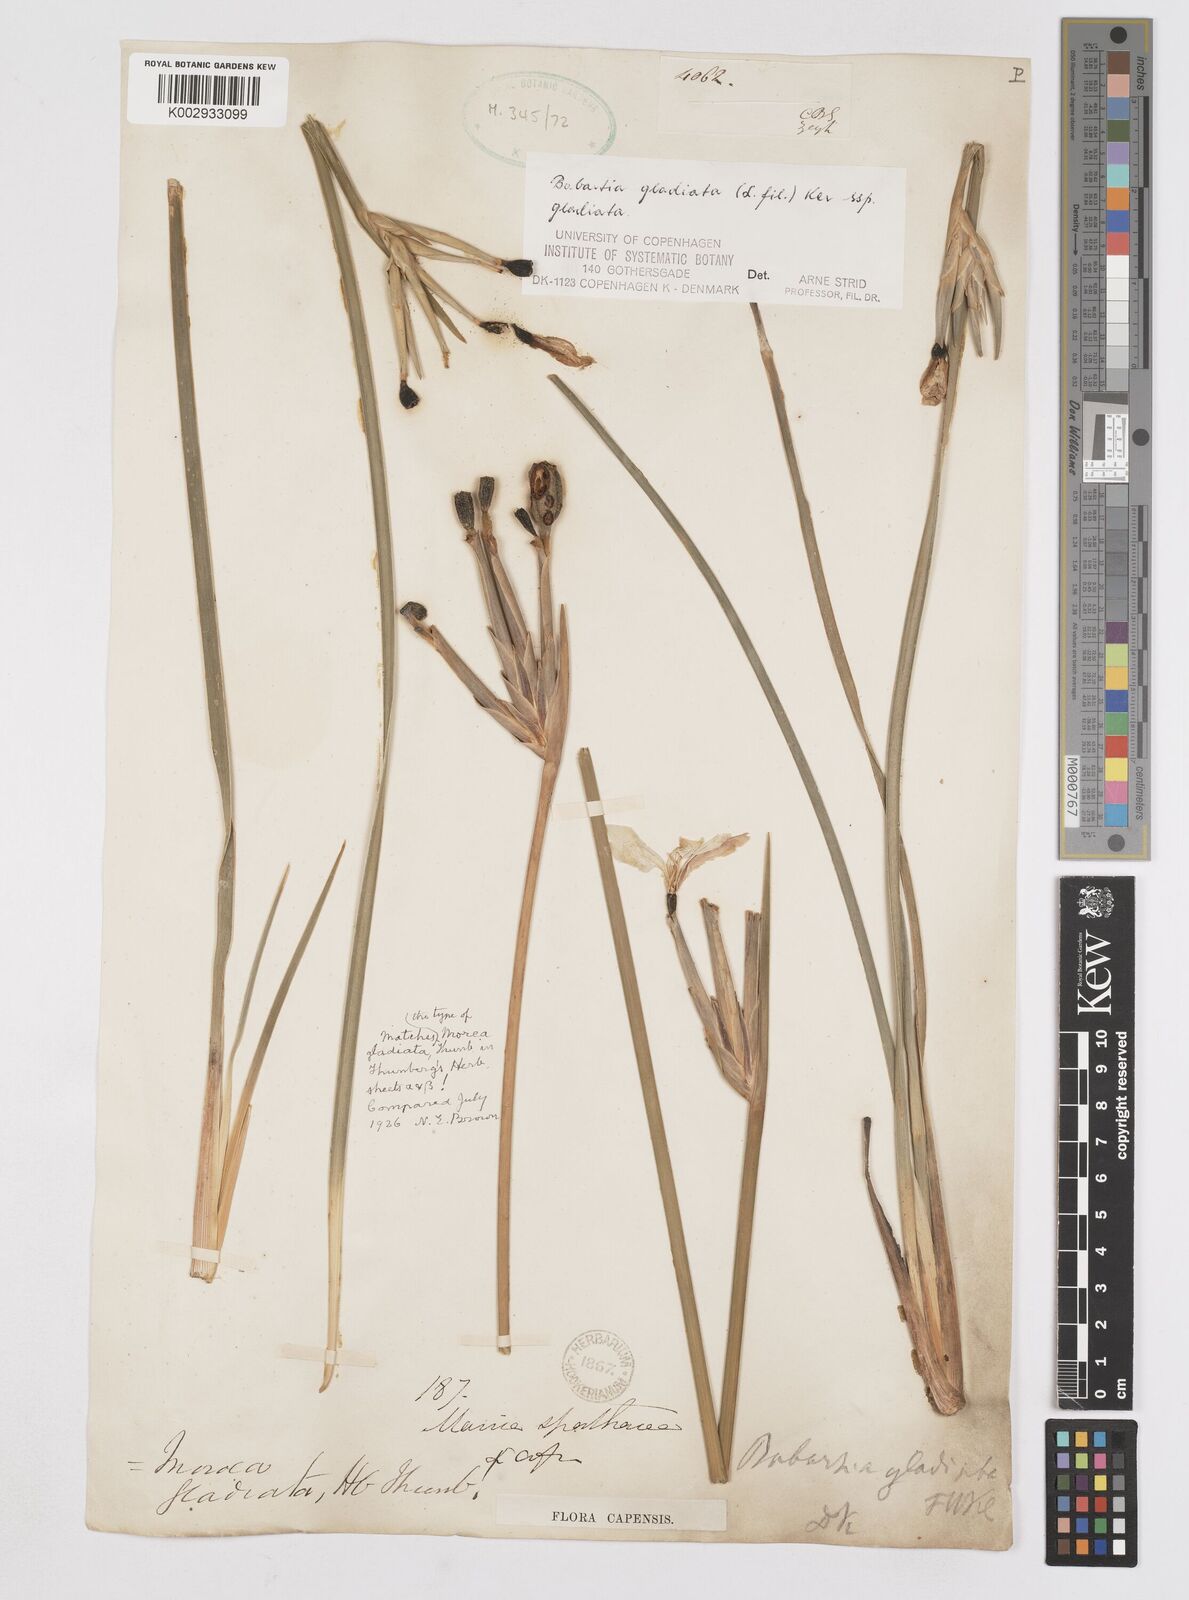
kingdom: Plantae
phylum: Tracheophyta
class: Liliopsida
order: Asparagales
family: Iridaceae
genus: Bobartia
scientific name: Bobartia gladiata
